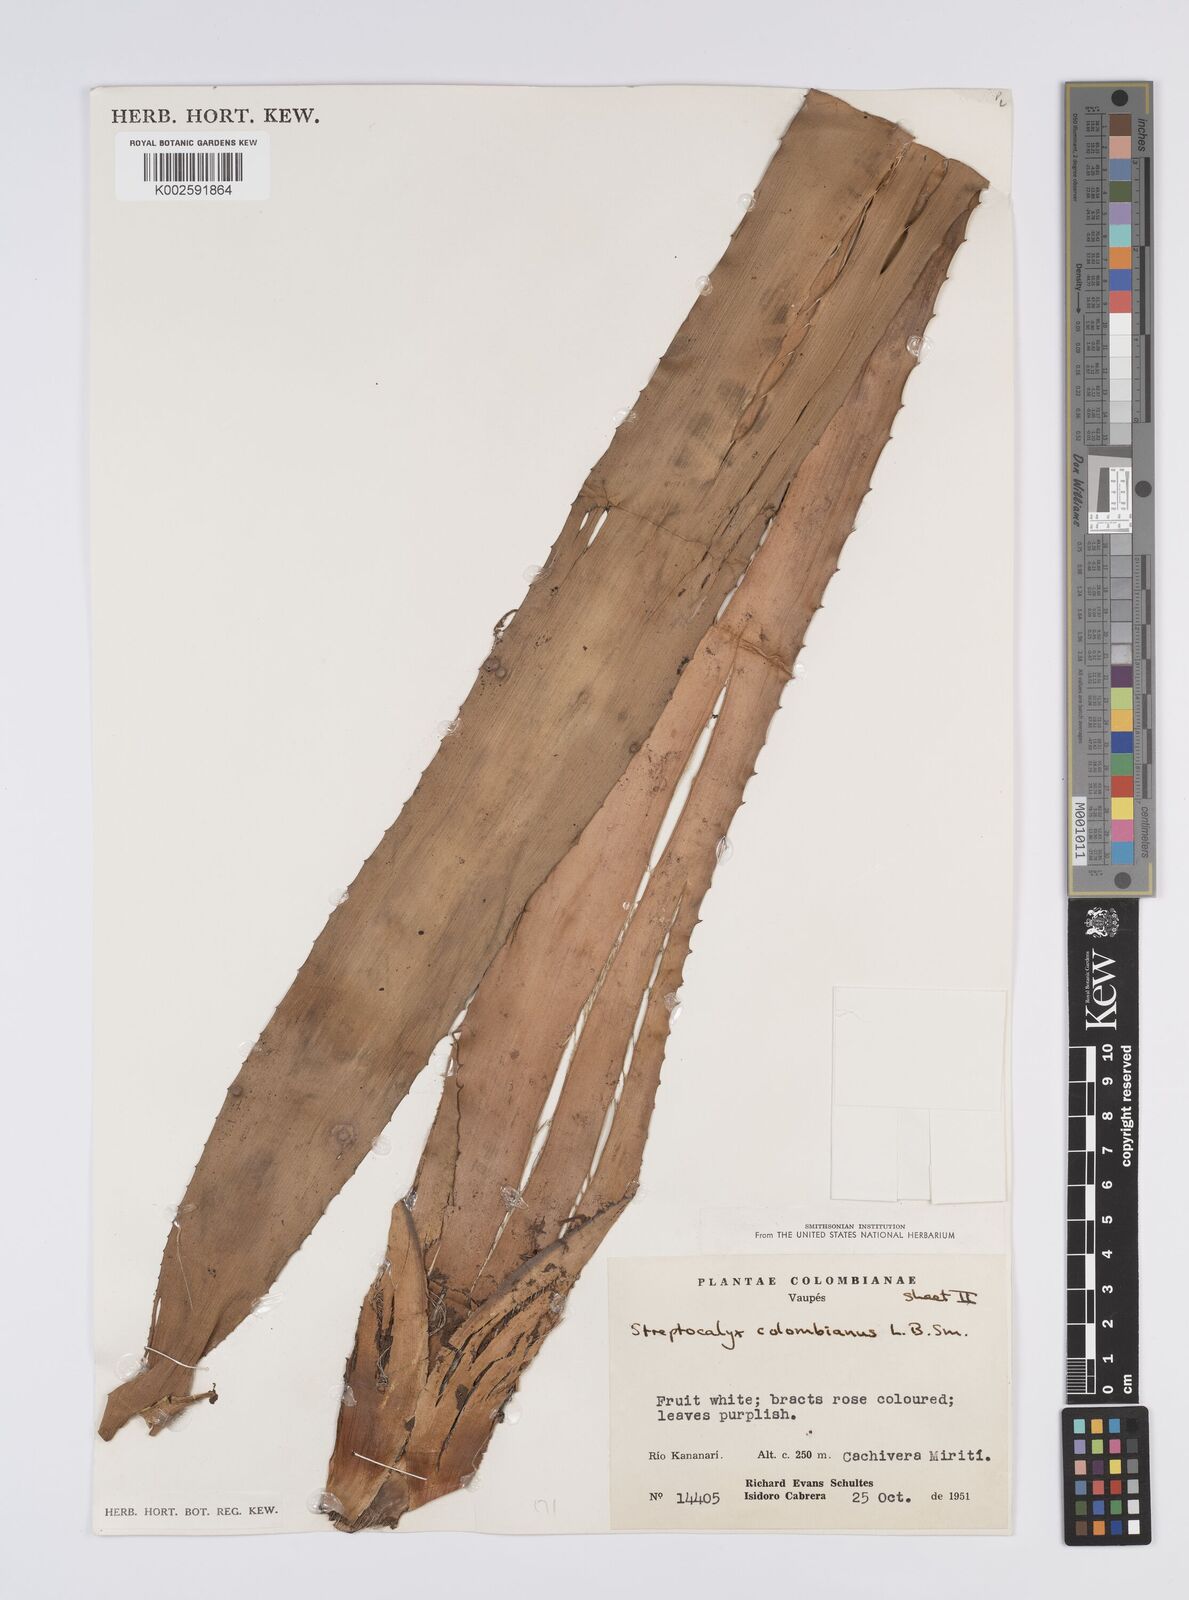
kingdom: Plantae
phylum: Tracheophyta
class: Liliopsida
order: Poales
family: Bromeliaceae
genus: Aechmea
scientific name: Aechmea colombiana
